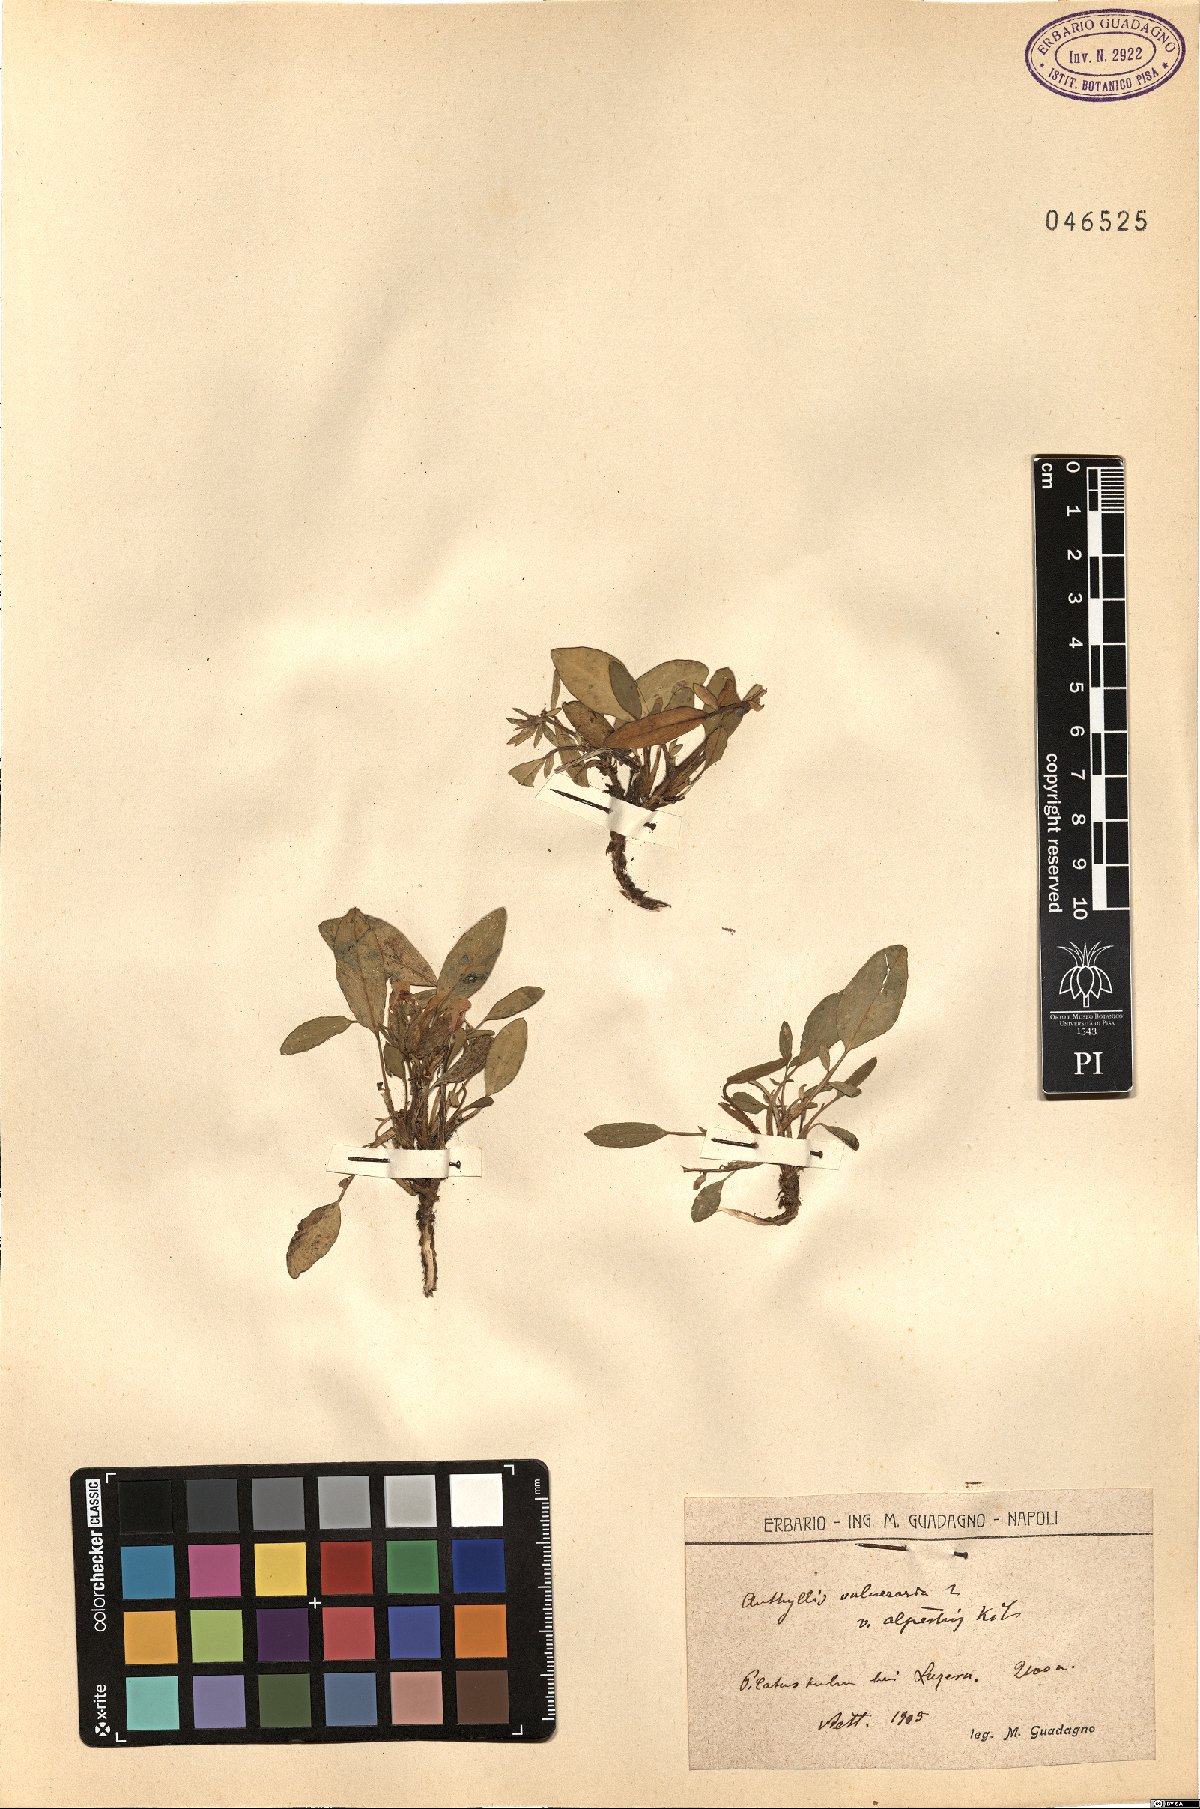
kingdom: Plantae
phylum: Tracheophyta
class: Magnoliopsida
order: Fabales
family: Fabaceae
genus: Anthyllis
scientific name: Anthyllis vulneraria
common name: Kidney vetch
